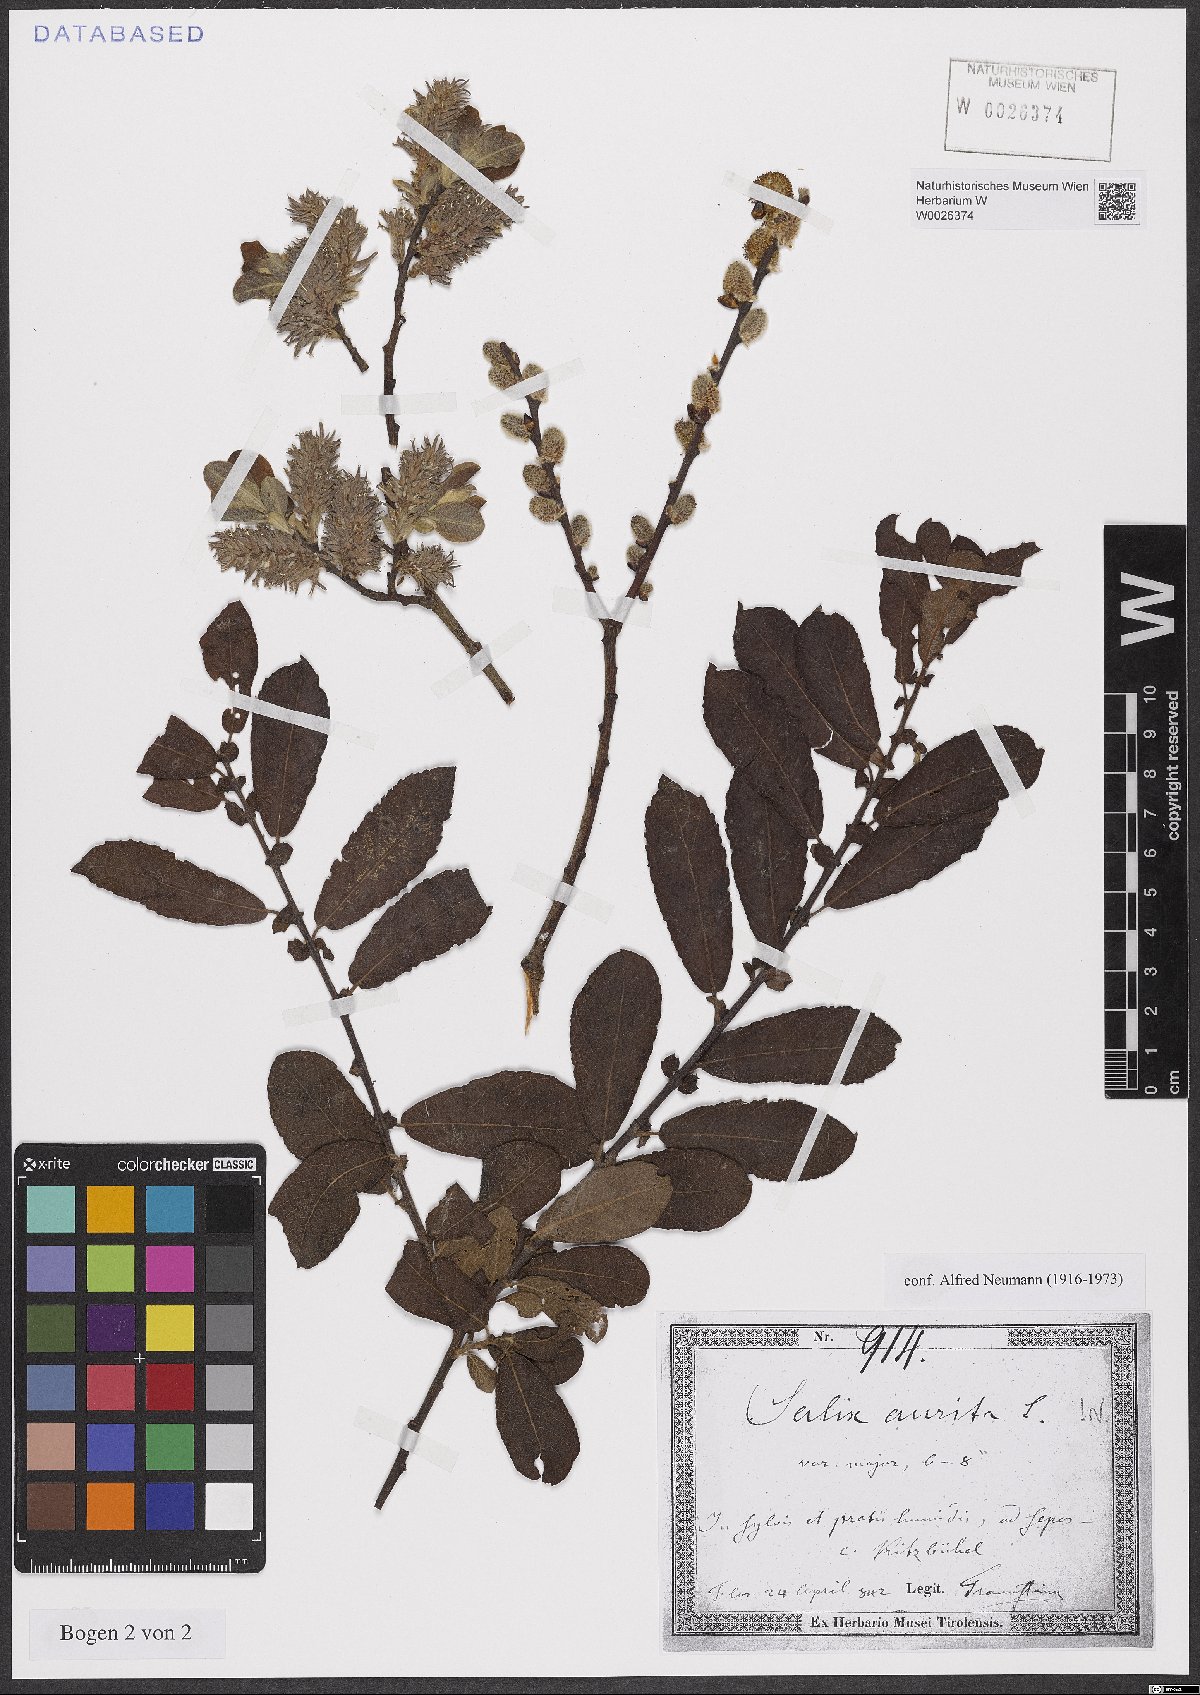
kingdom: Plantae
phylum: Tracheophyta
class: Magnoliopsida
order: Malpighiales
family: Salicaceae
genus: Salix
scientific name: Salix aurita
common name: Eared willow
